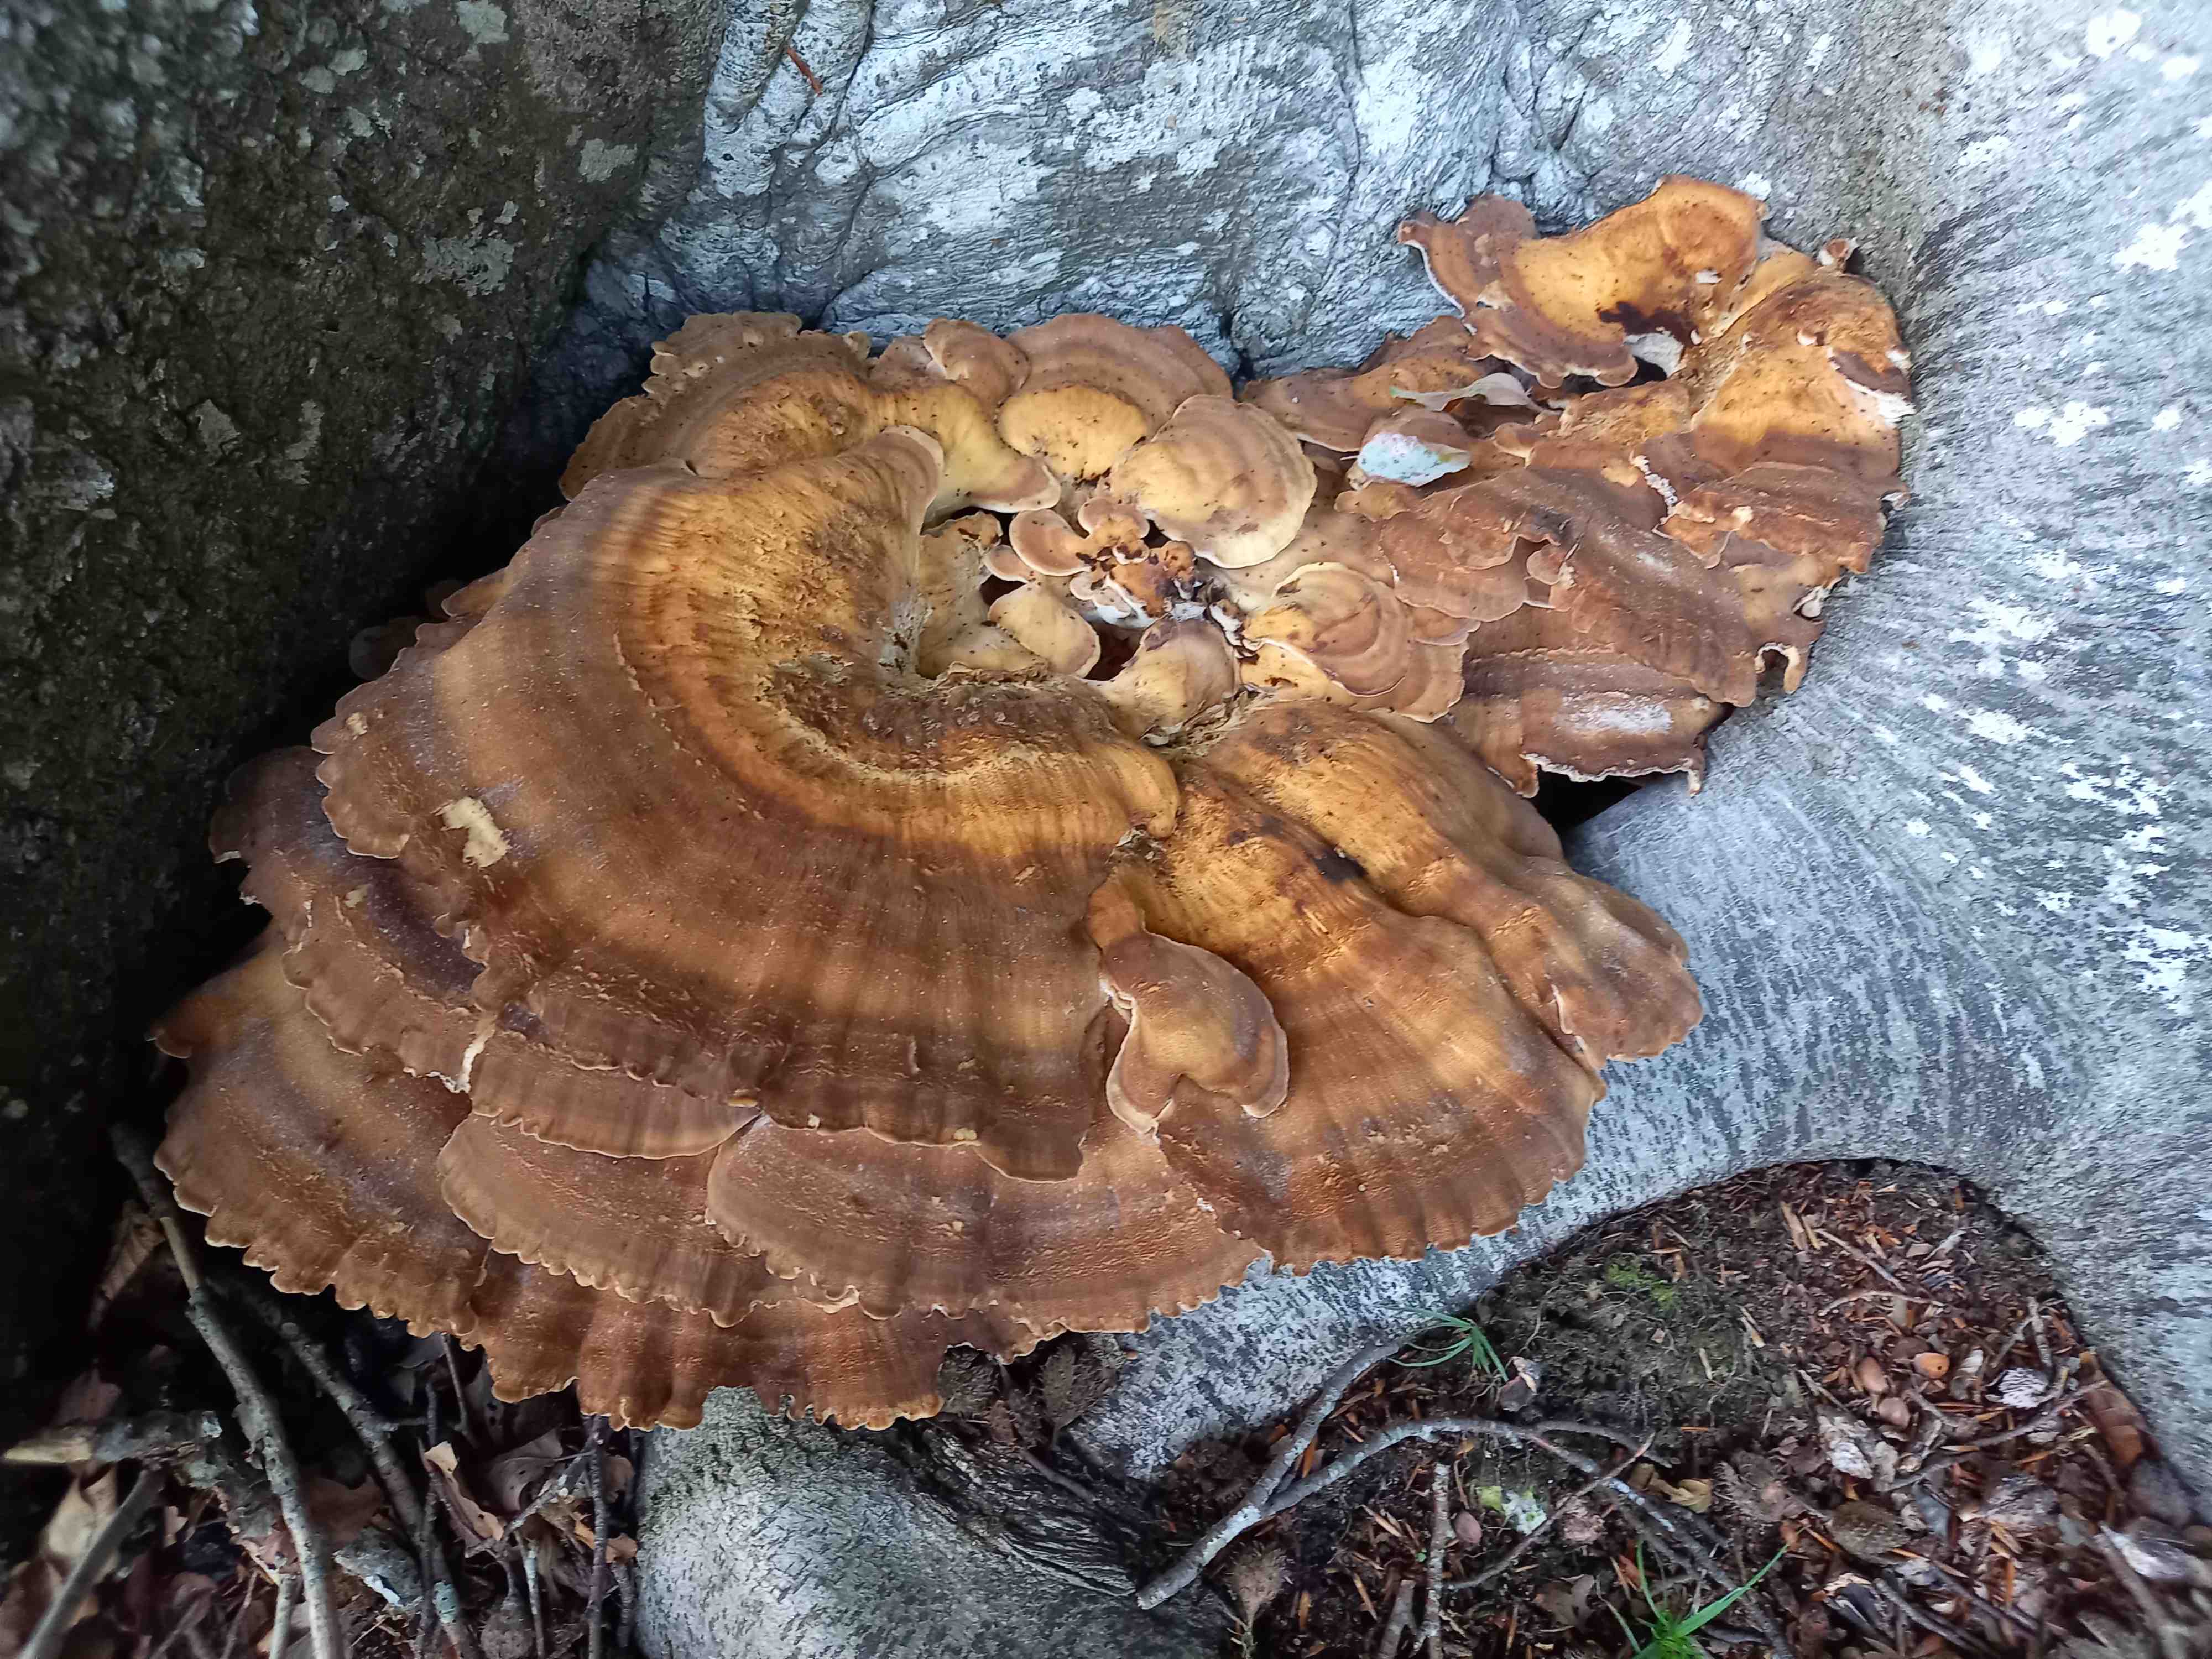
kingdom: Fungi
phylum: Basidiomycota
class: Agaricomycetes
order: Polyporales
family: Meripilaceae
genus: Meripilus
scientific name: Meripilus giganteus
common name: kæmpeporesvamp
